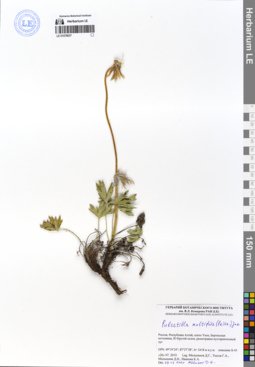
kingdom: Plantae
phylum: Tracheophyta
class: Magnoliopsida
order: Ranunculales
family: Ranunculaceae
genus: Pulsatilla
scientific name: Pulsatilla patens
